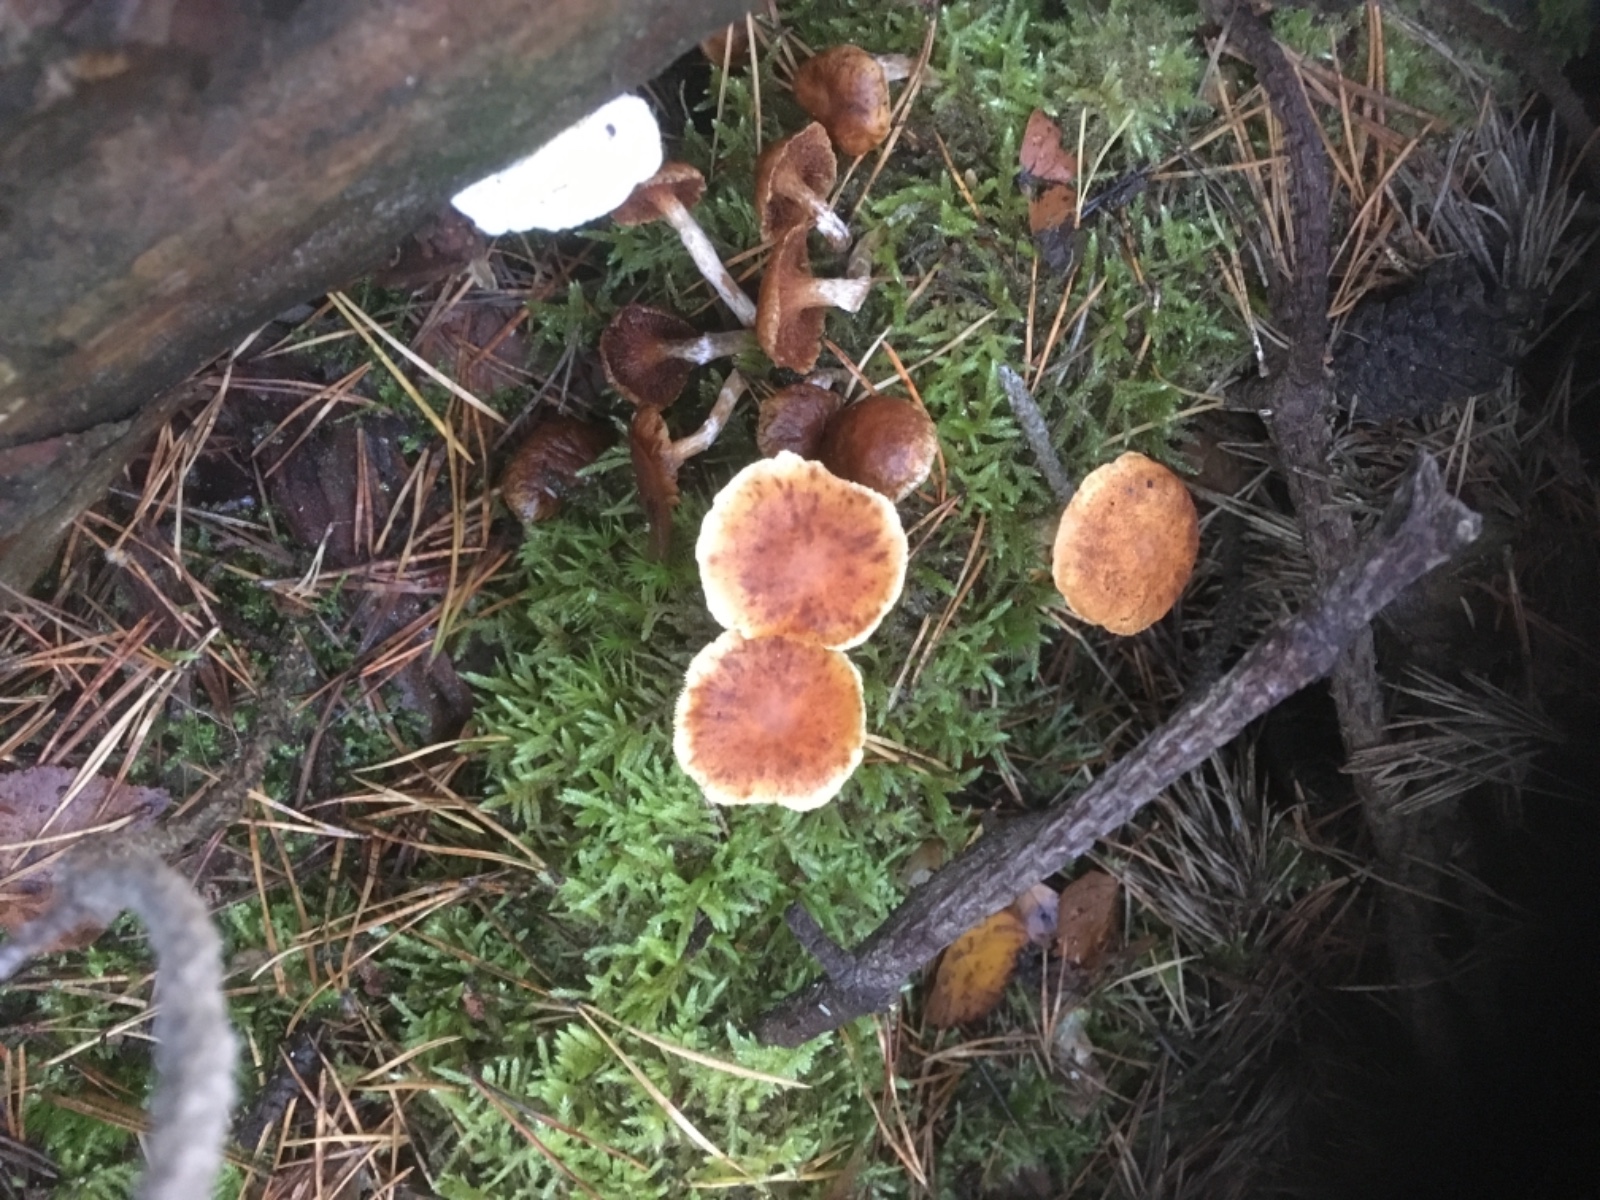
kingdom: Fungi
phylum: Basidiomycota
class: Agaricomycetes
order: Agaricales
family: Hymenogastraceae
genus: Gymnopilus
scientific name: Gymnopilus penetrans
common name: plettet flammehat
